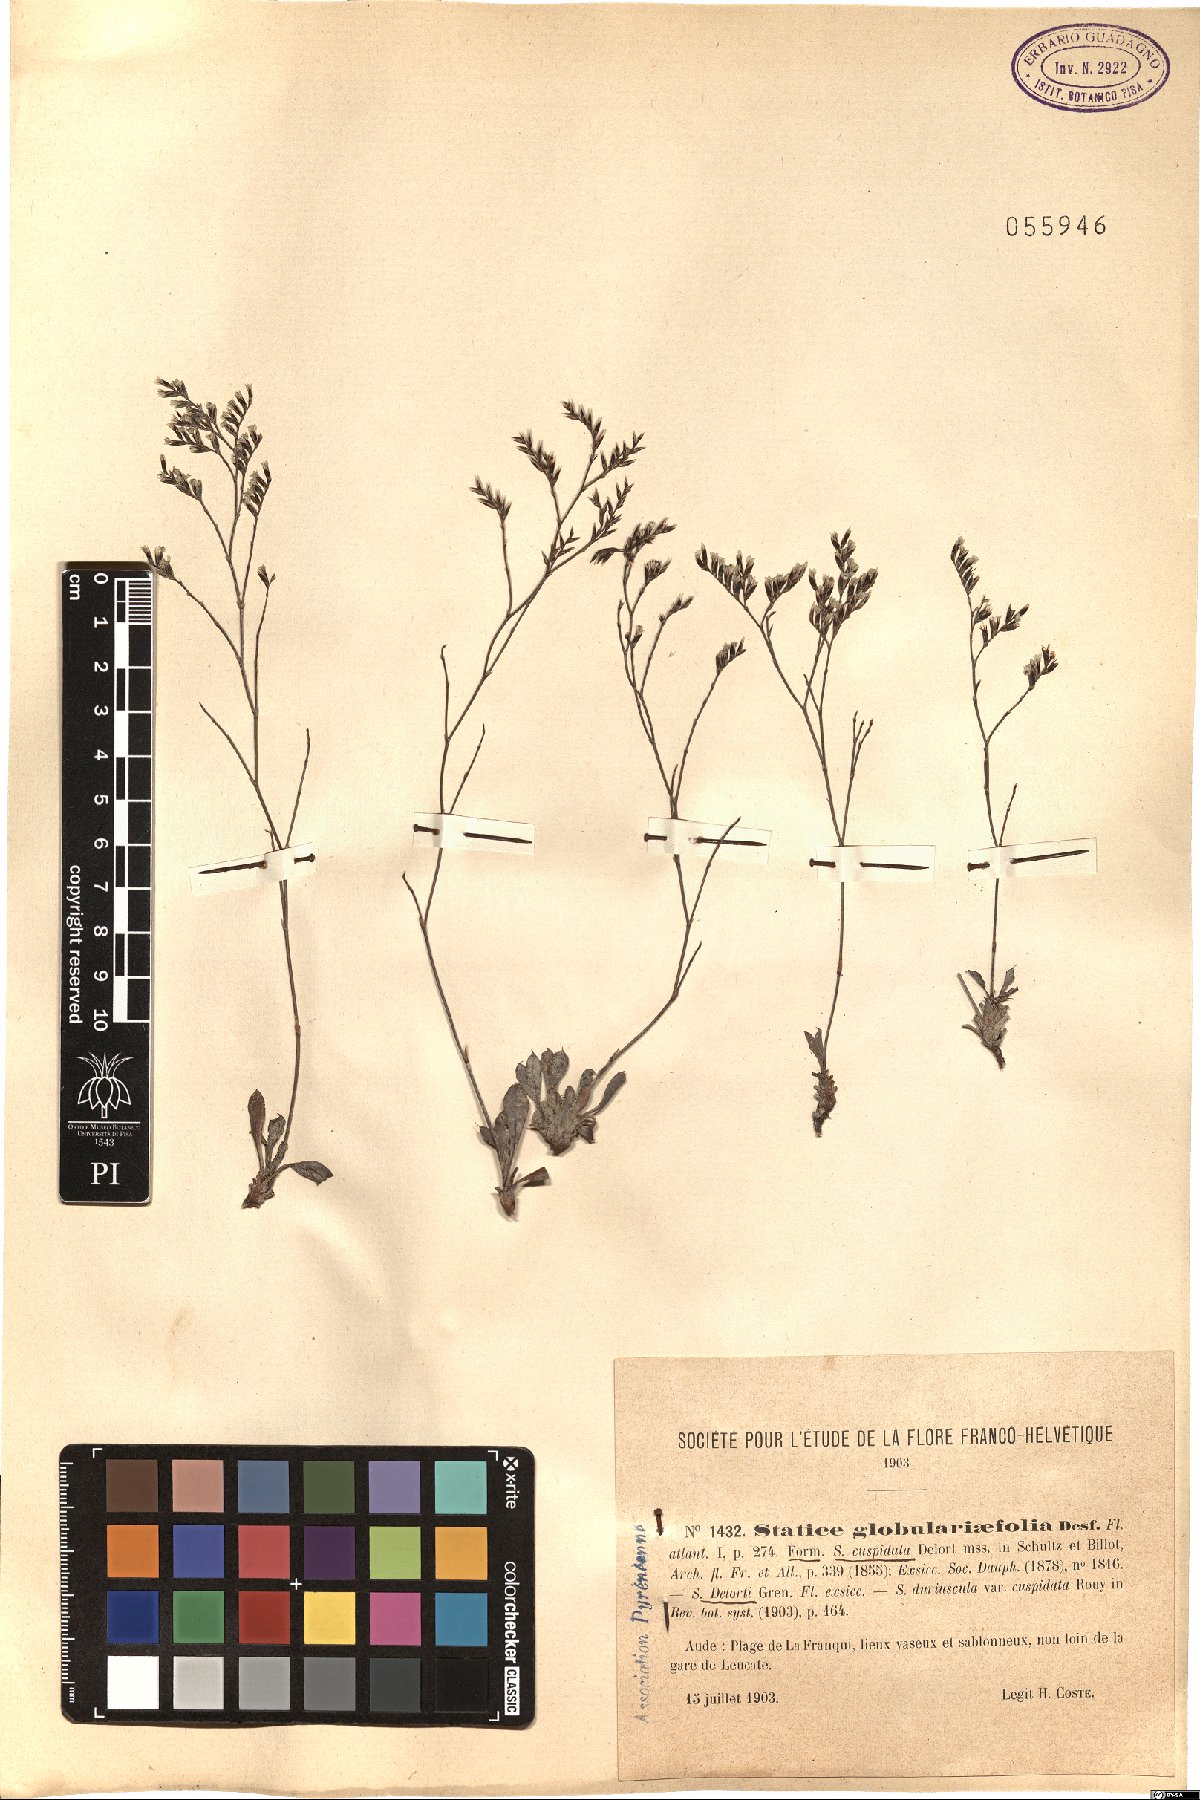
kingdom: Plantae
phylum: Tracheophyta
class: Magnoliopsida
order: Caryophyllales
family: Plumbaginaceae
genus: Limonium
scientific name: Limonium raddianum
